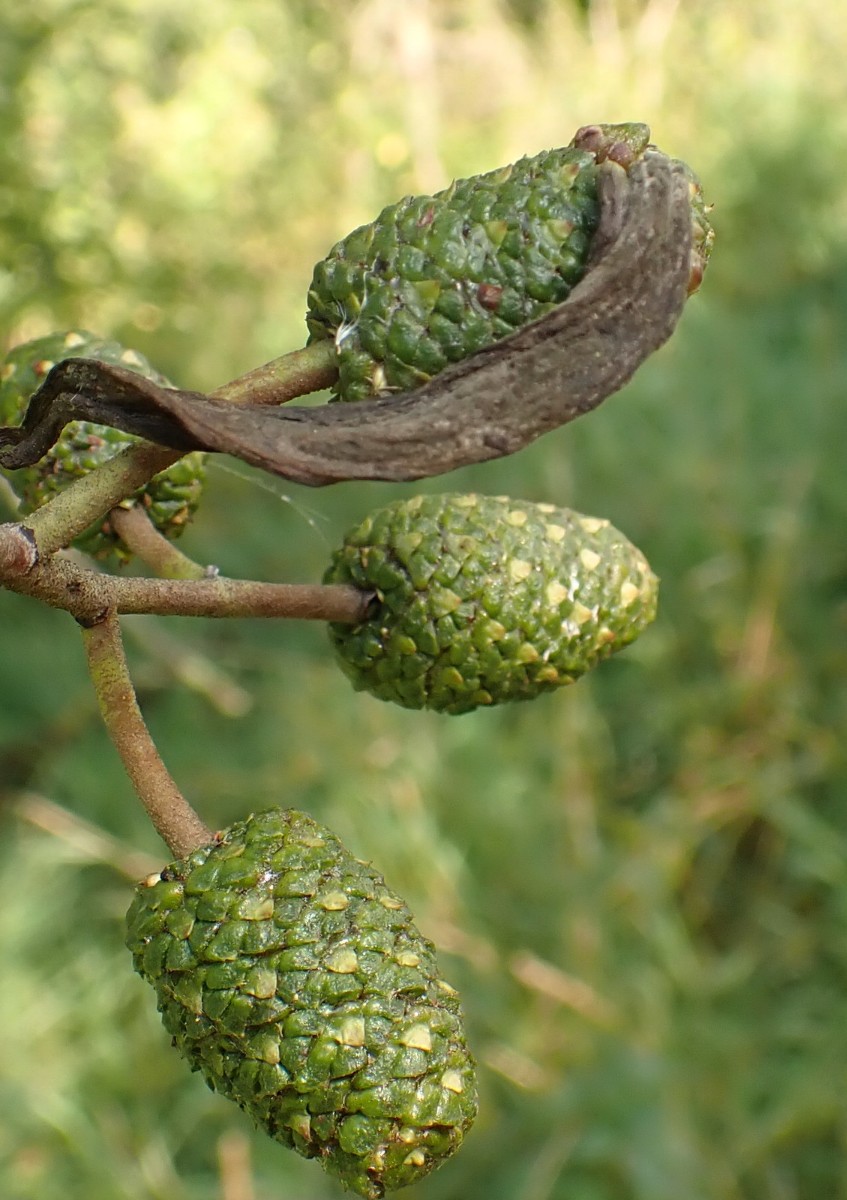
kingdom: Fungi
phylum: Ascomycota
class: Taphrinomycetes
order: Taphrinales
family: Taphrinaceae
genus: Taphrina
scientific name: Taphrina alni
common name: Alder tongue
